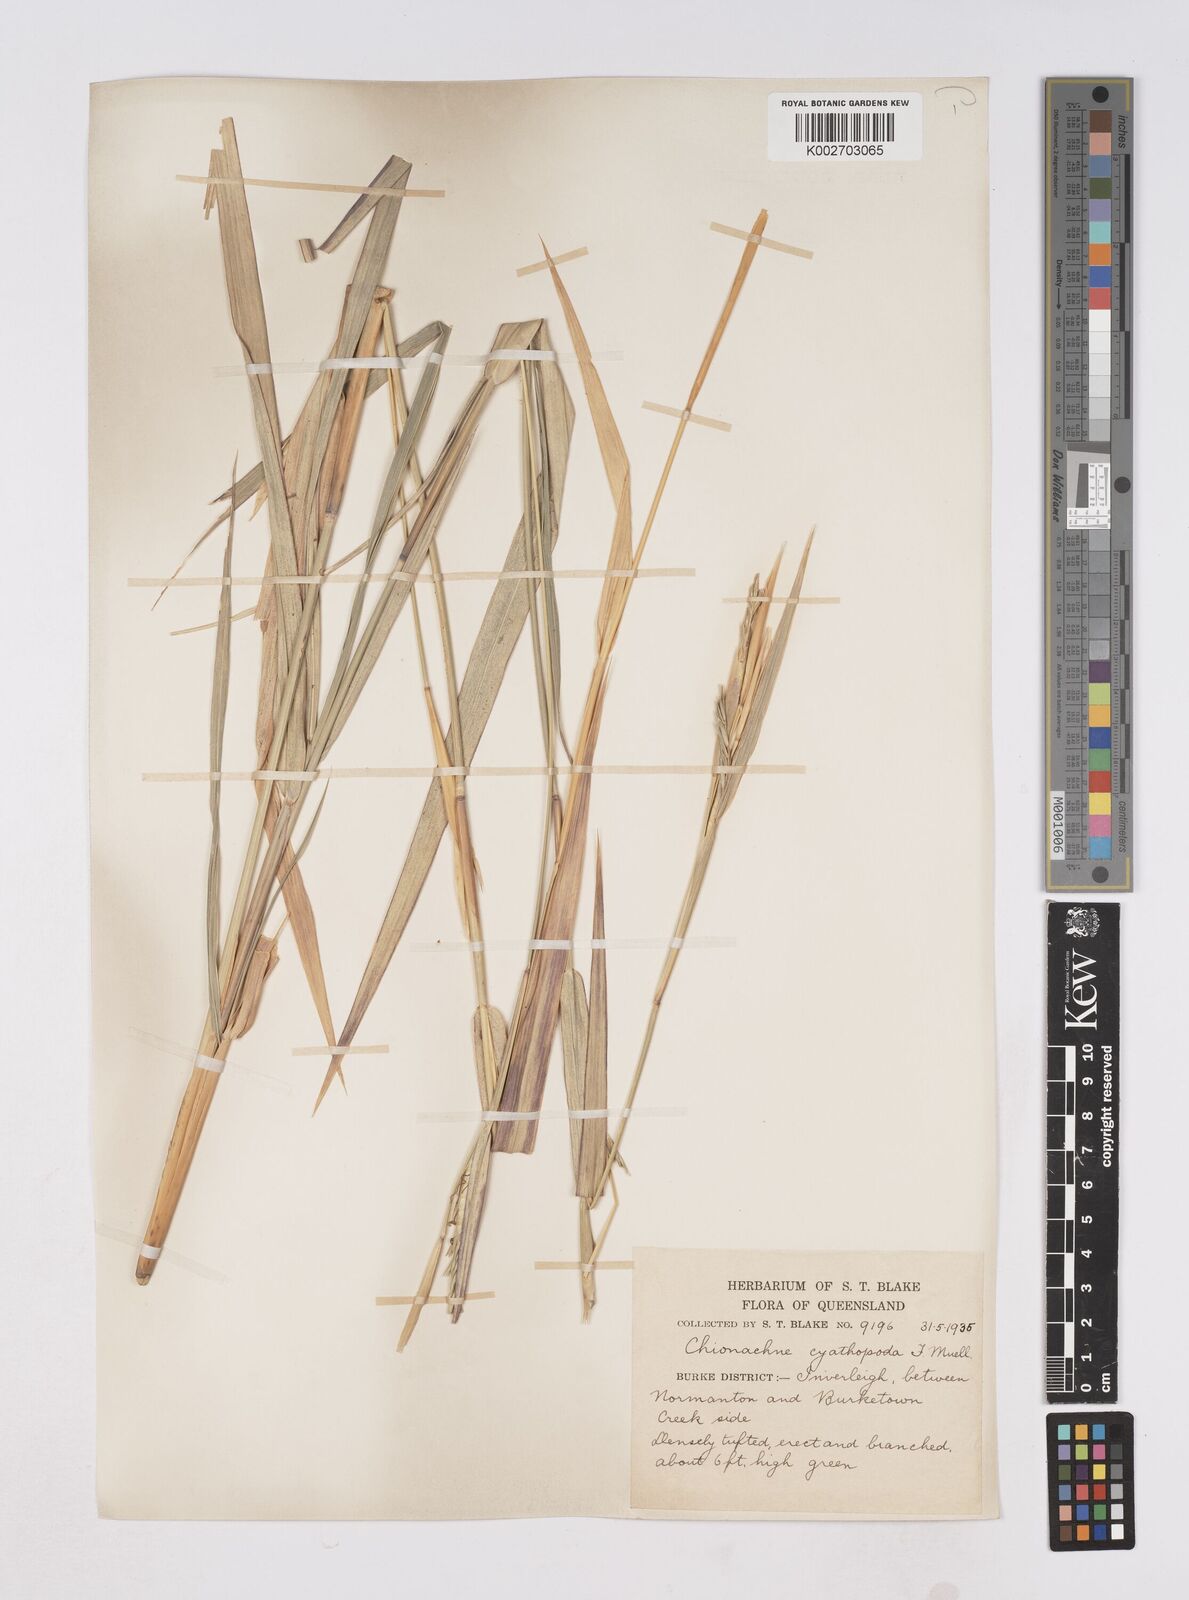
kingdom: Plantae
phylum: Tracheophyta
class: Liliopsida
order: Poales
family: Poaceae
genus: Polytoca
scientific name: Polytoca cyathopoda
